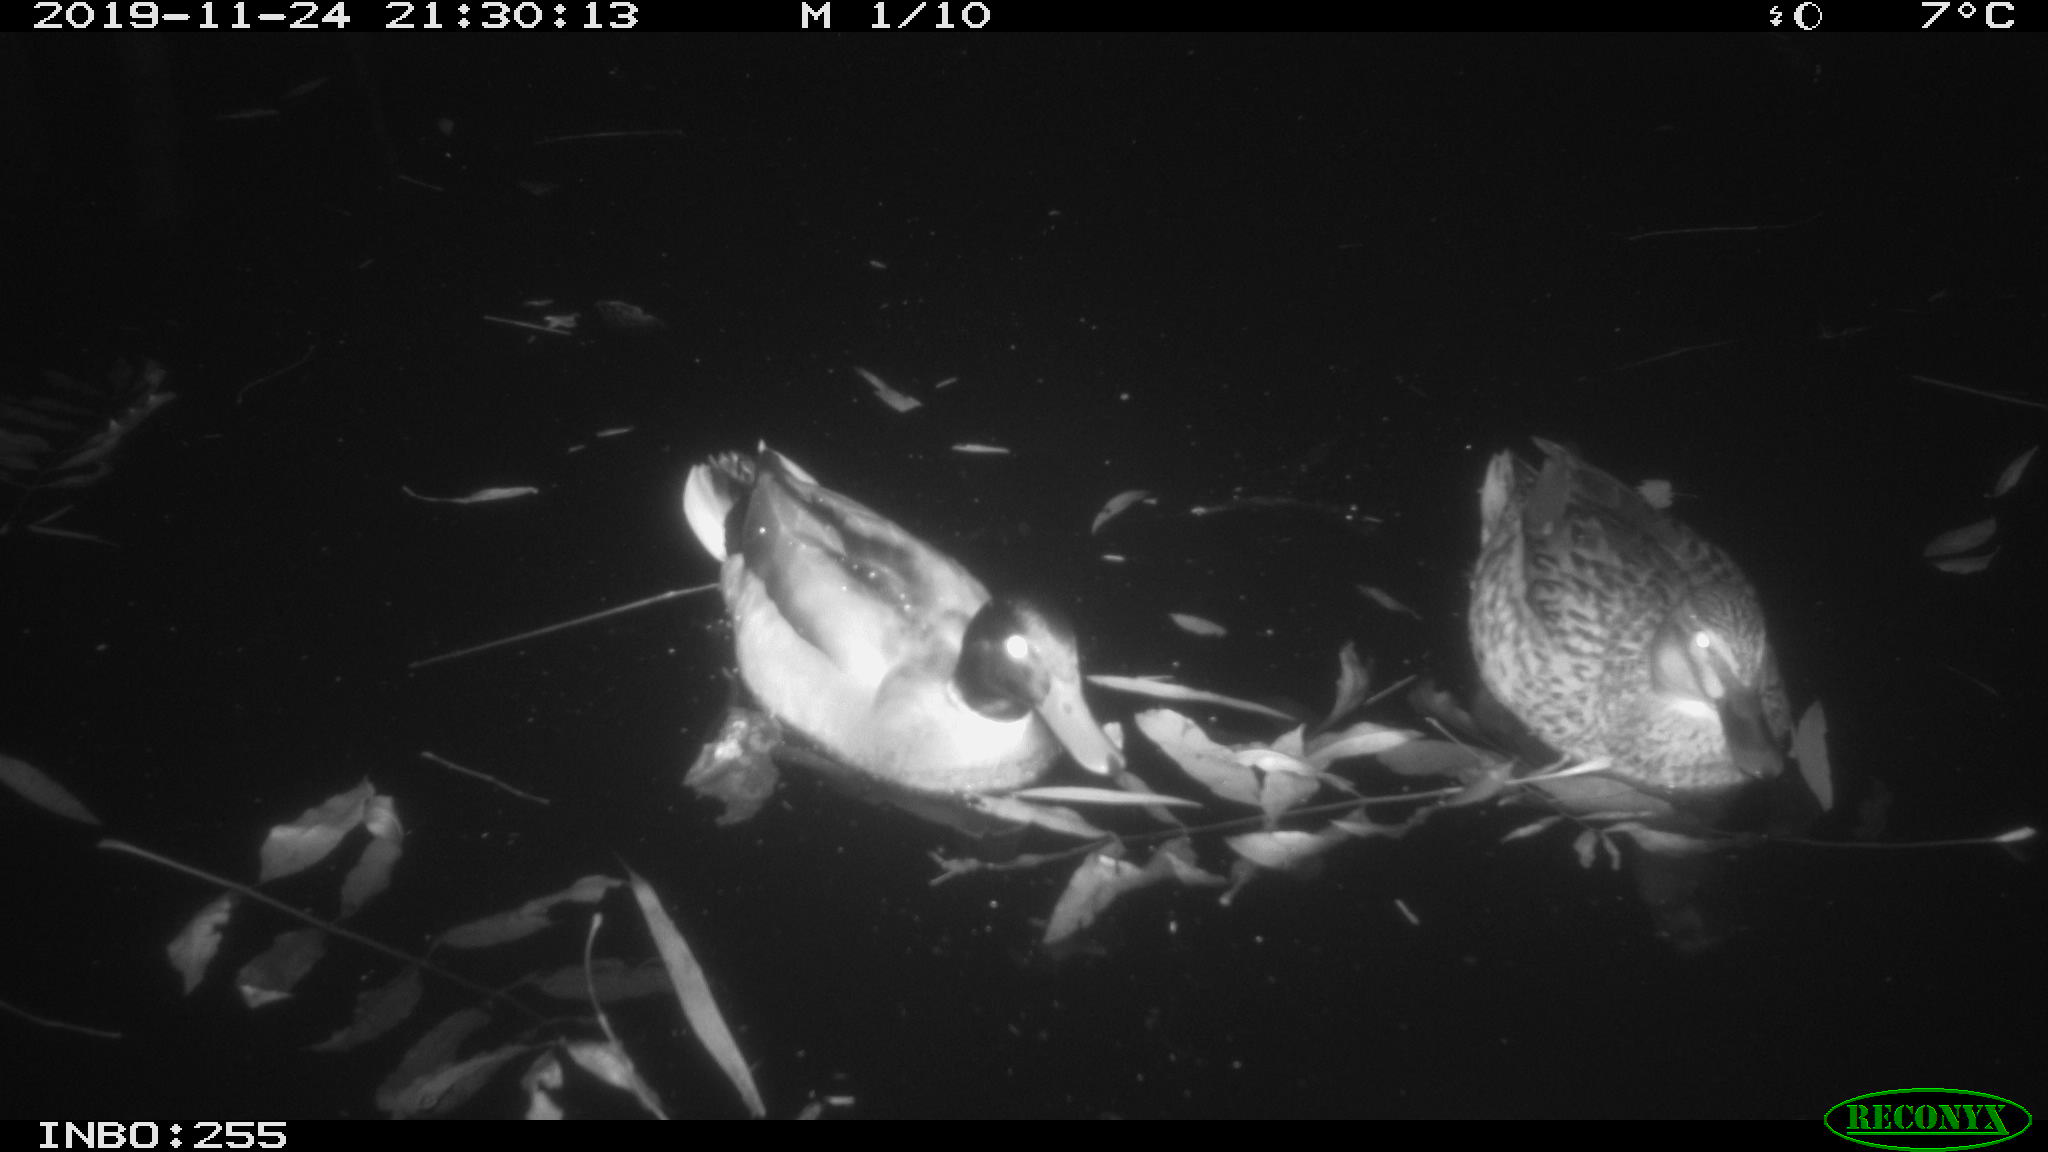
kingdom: Animalia
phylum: Chordata
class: Aves
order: Anseriformes
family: Anatidae
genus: Anas
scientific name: Anas platyrhynchos
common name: Mallard
